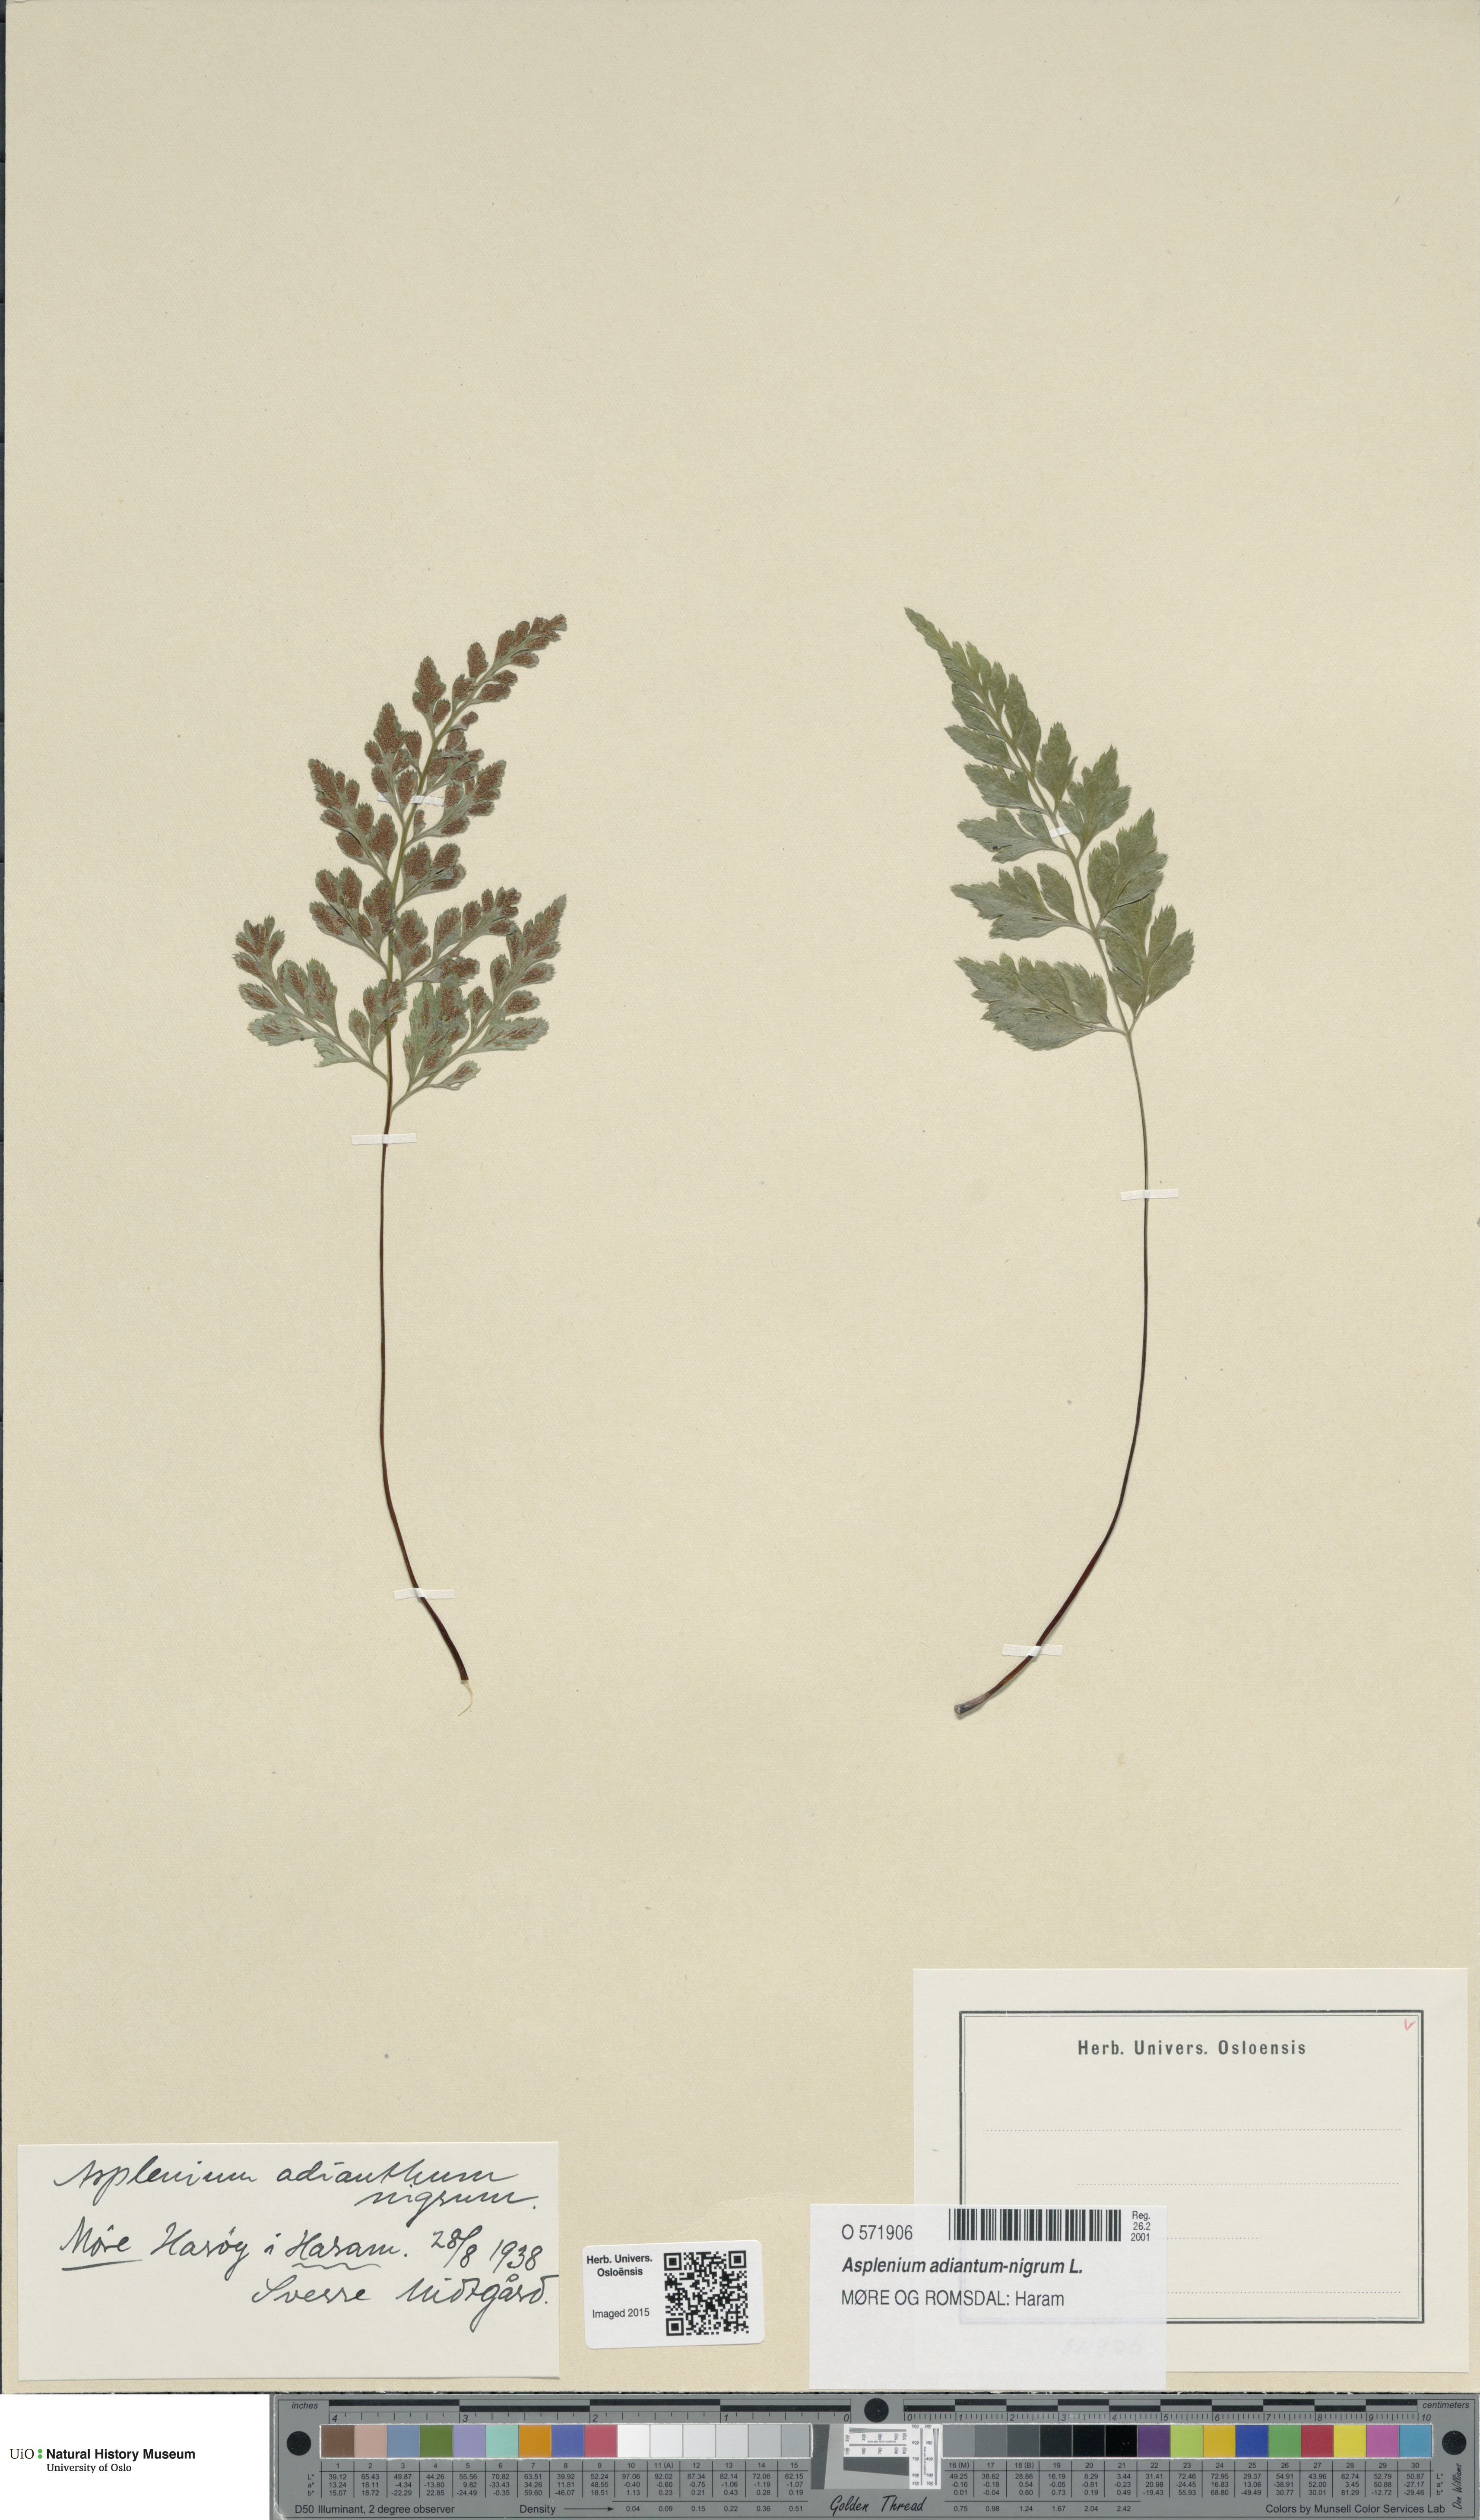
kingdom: Plantae
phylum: Tracheophyta
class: Polypodiopsida
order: Polypodiales
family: Aspleniaceae
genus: Asplenium
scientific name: Asplenium adiantum-nigrum
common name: Black spleenwort
